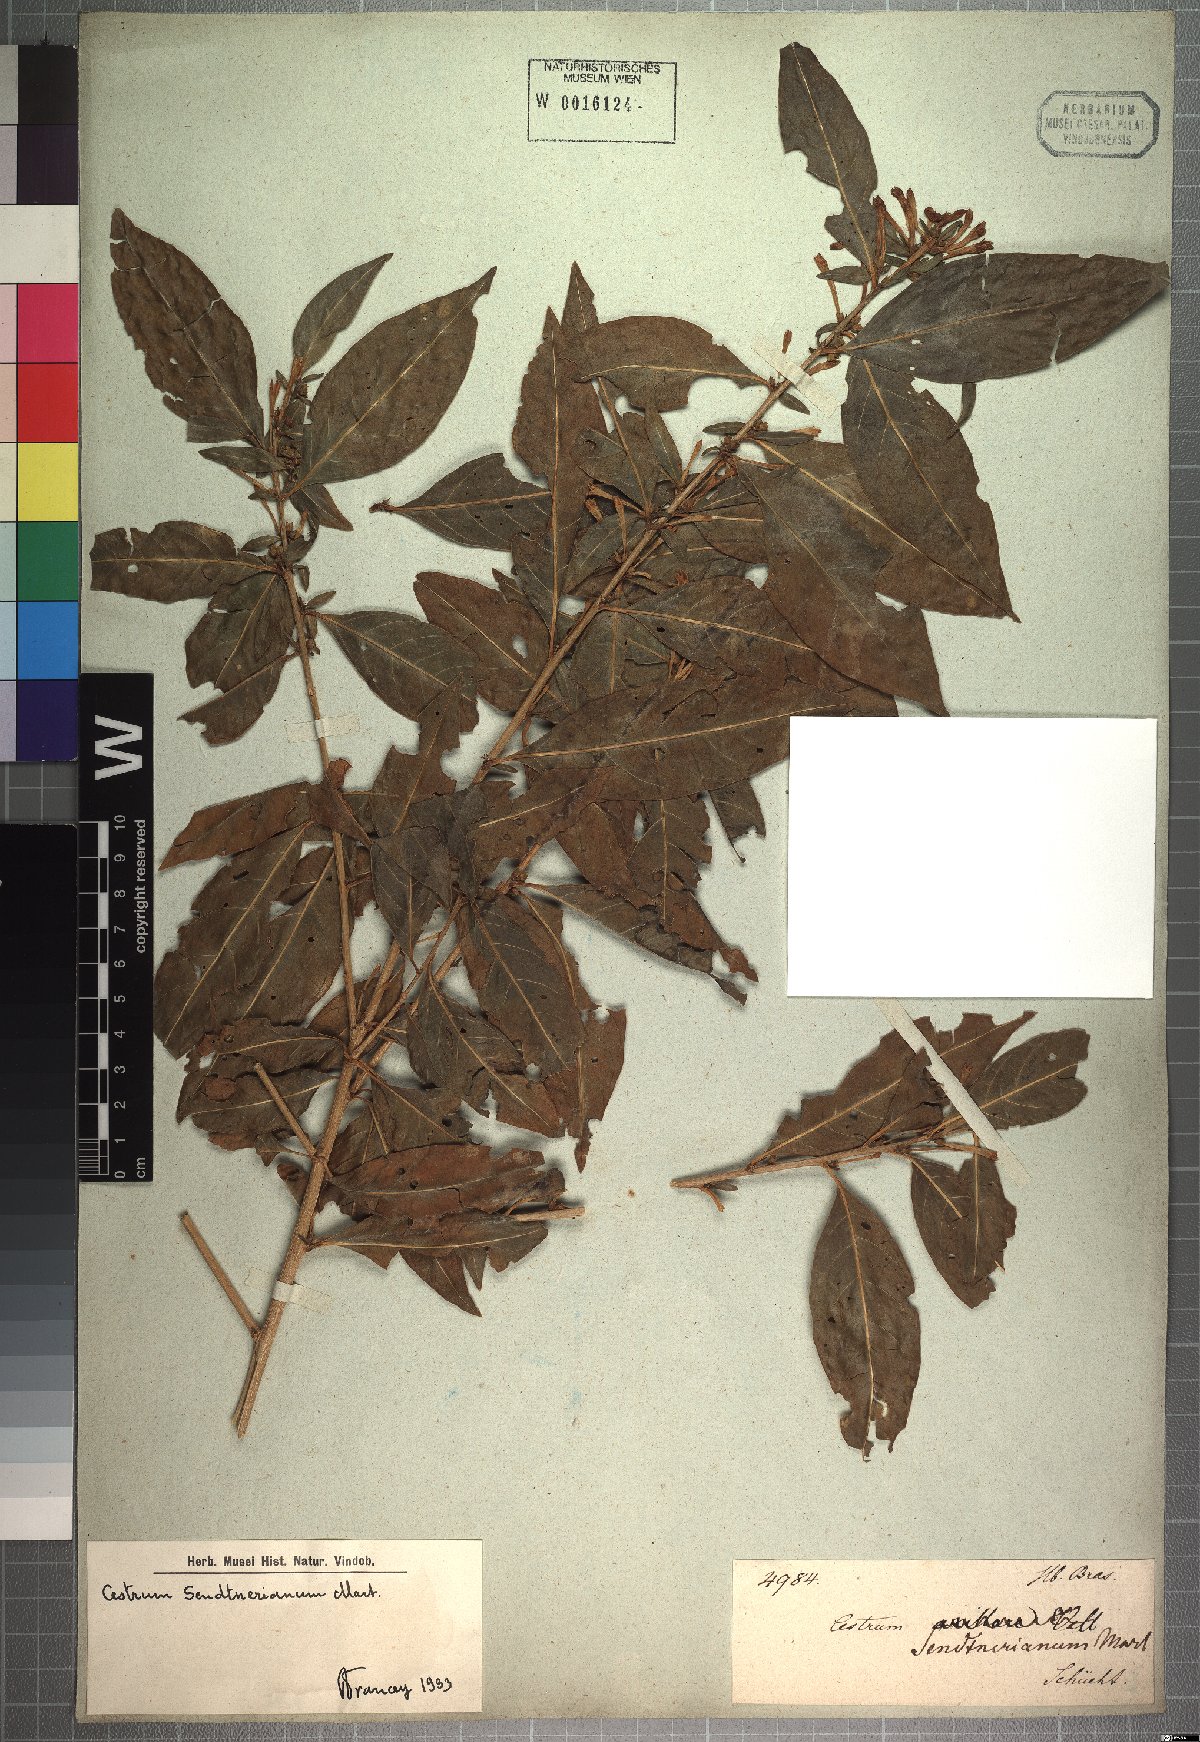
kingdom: Plantae
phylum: Tracheophyta
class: Magnoliopsida
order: Solanales
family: Solanaceae
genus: Cestrum
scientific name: Cestrum mariquitense
